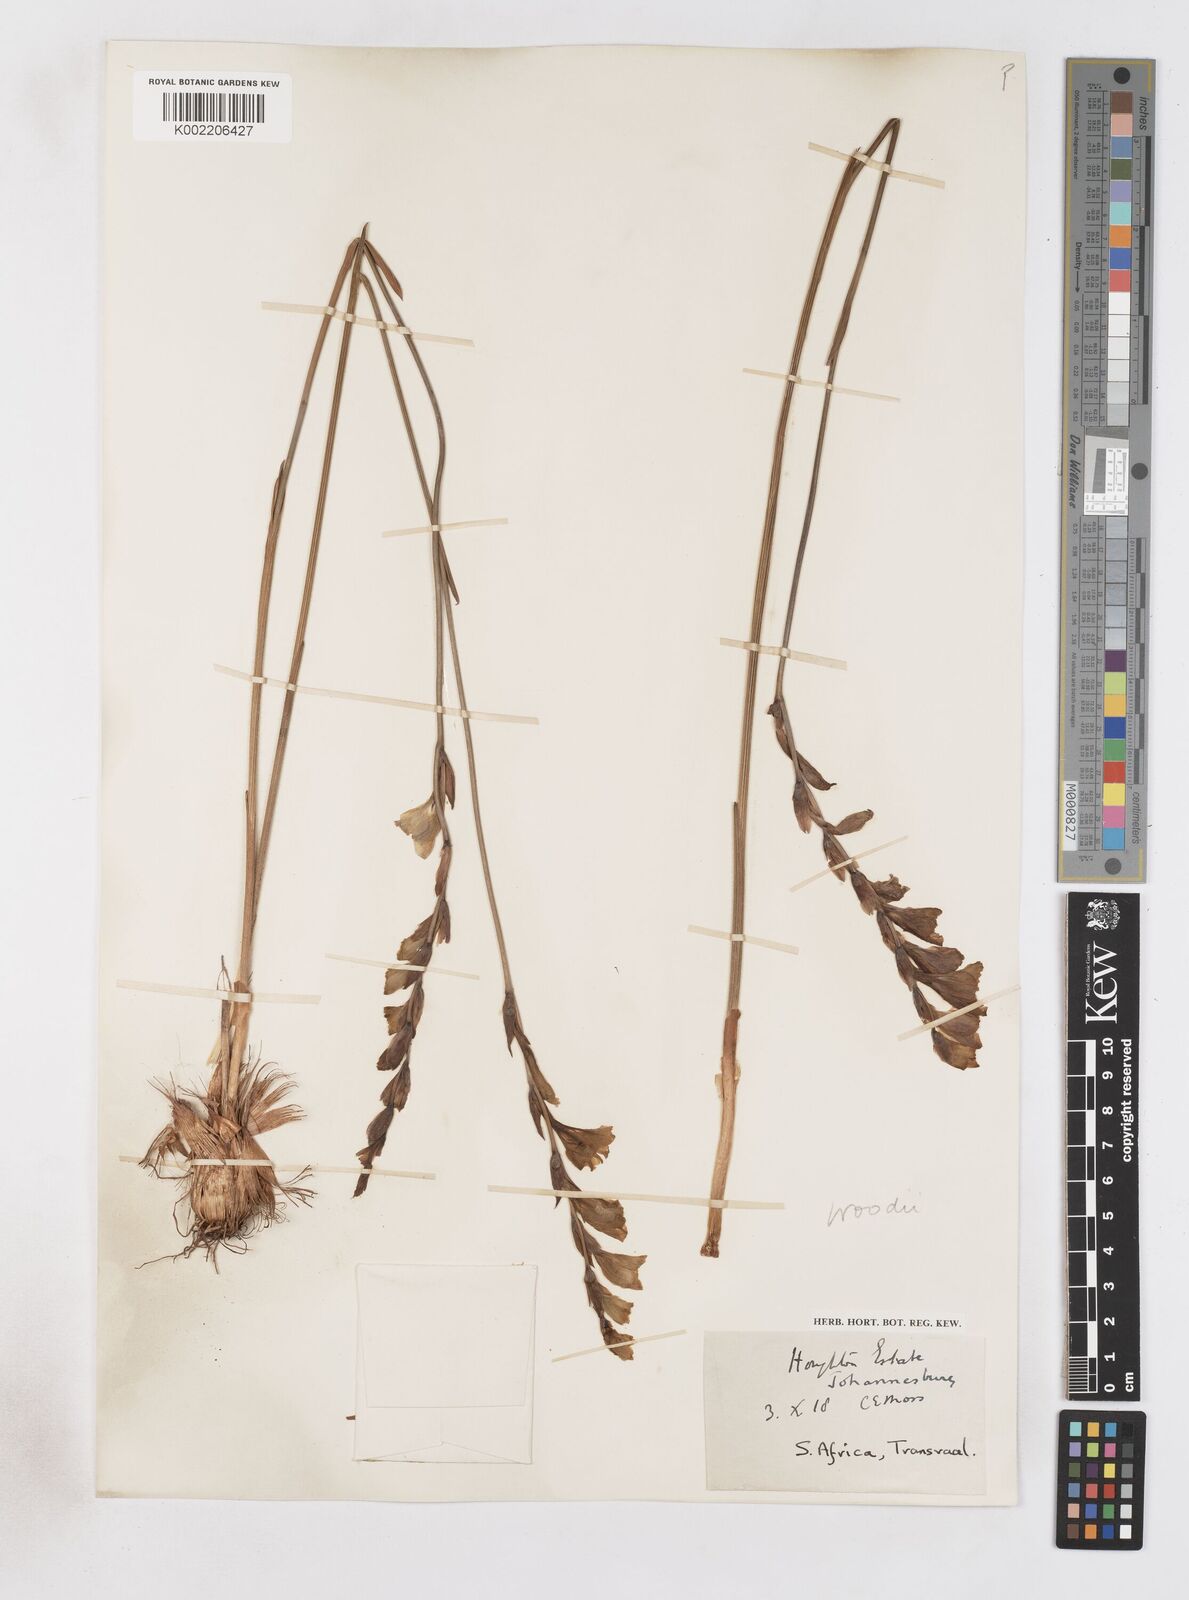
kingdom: Plantae
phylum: Tracheophyta
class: Liliopsida
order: Asparagales
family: Iridaceae
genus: Gladiolus
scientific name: Gladiolus woodii
